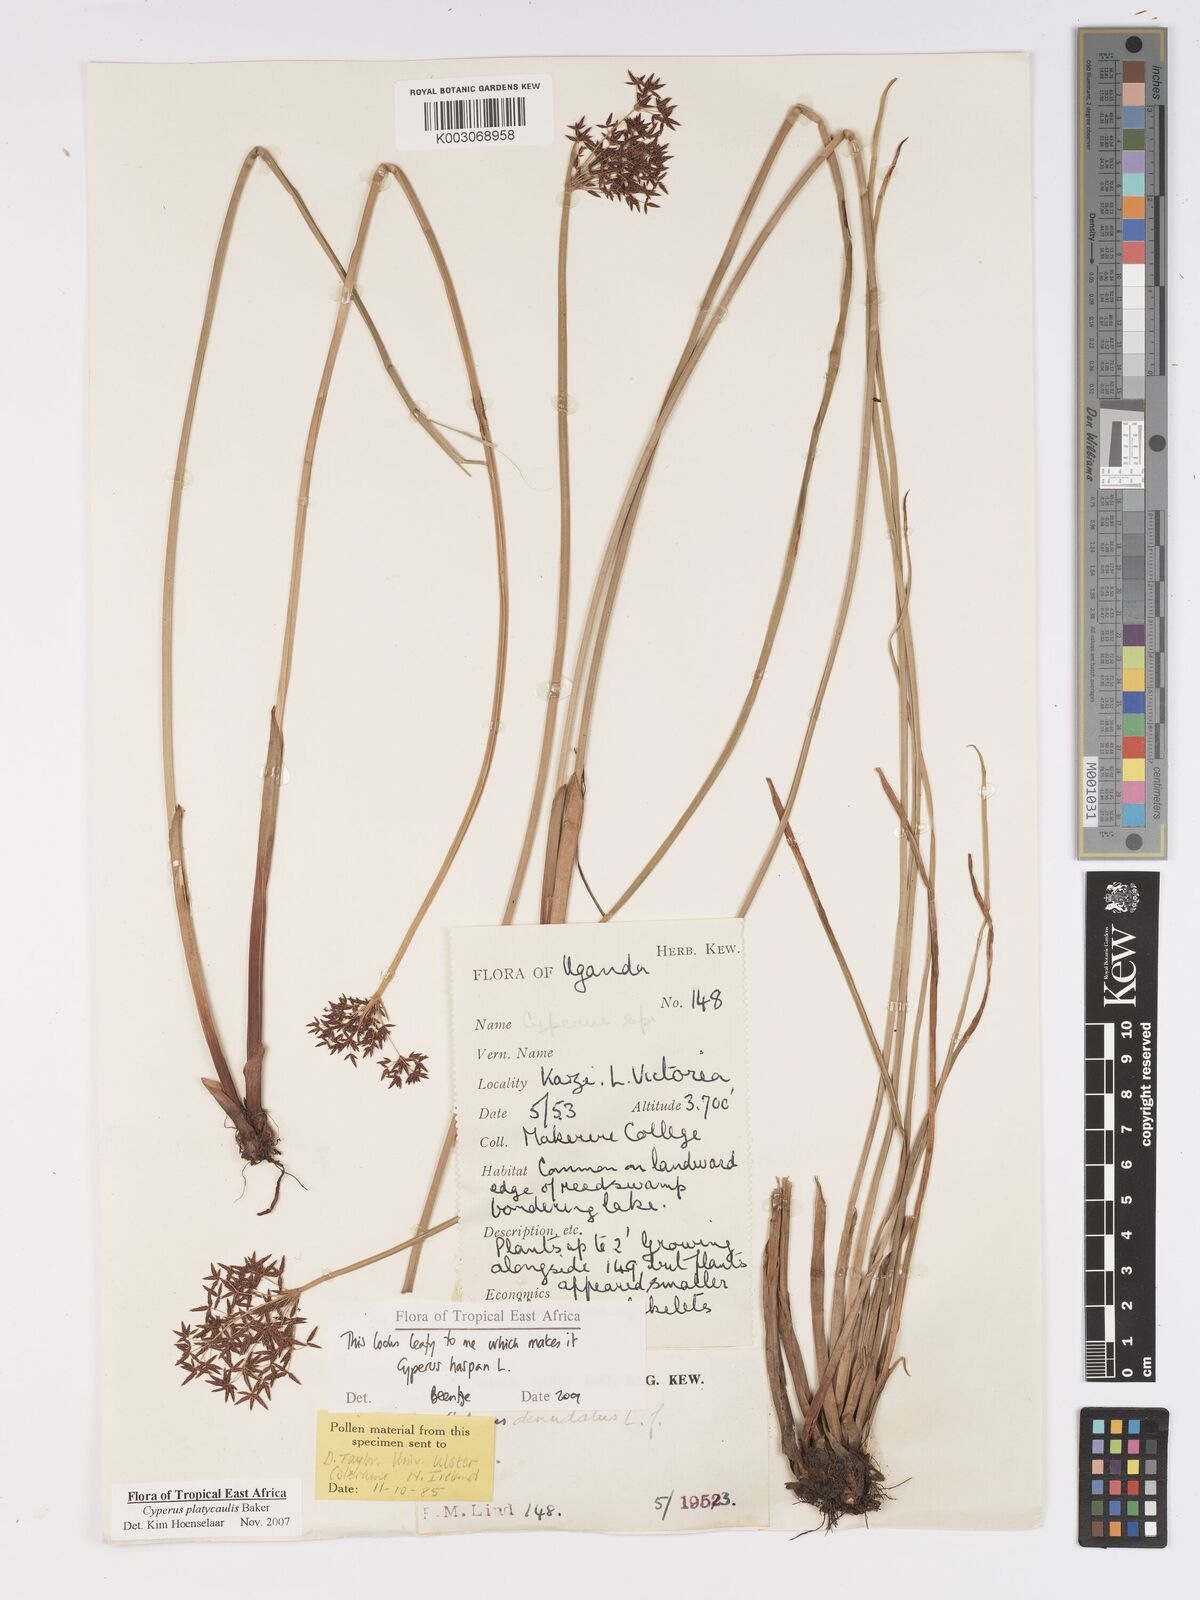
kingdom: Plantae
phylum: Tracheophyta
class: Liliopsida
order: Poales
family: Cyperaceae
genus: Cyperus
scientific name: Cyperus haspan
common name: Haspan flatsedge
